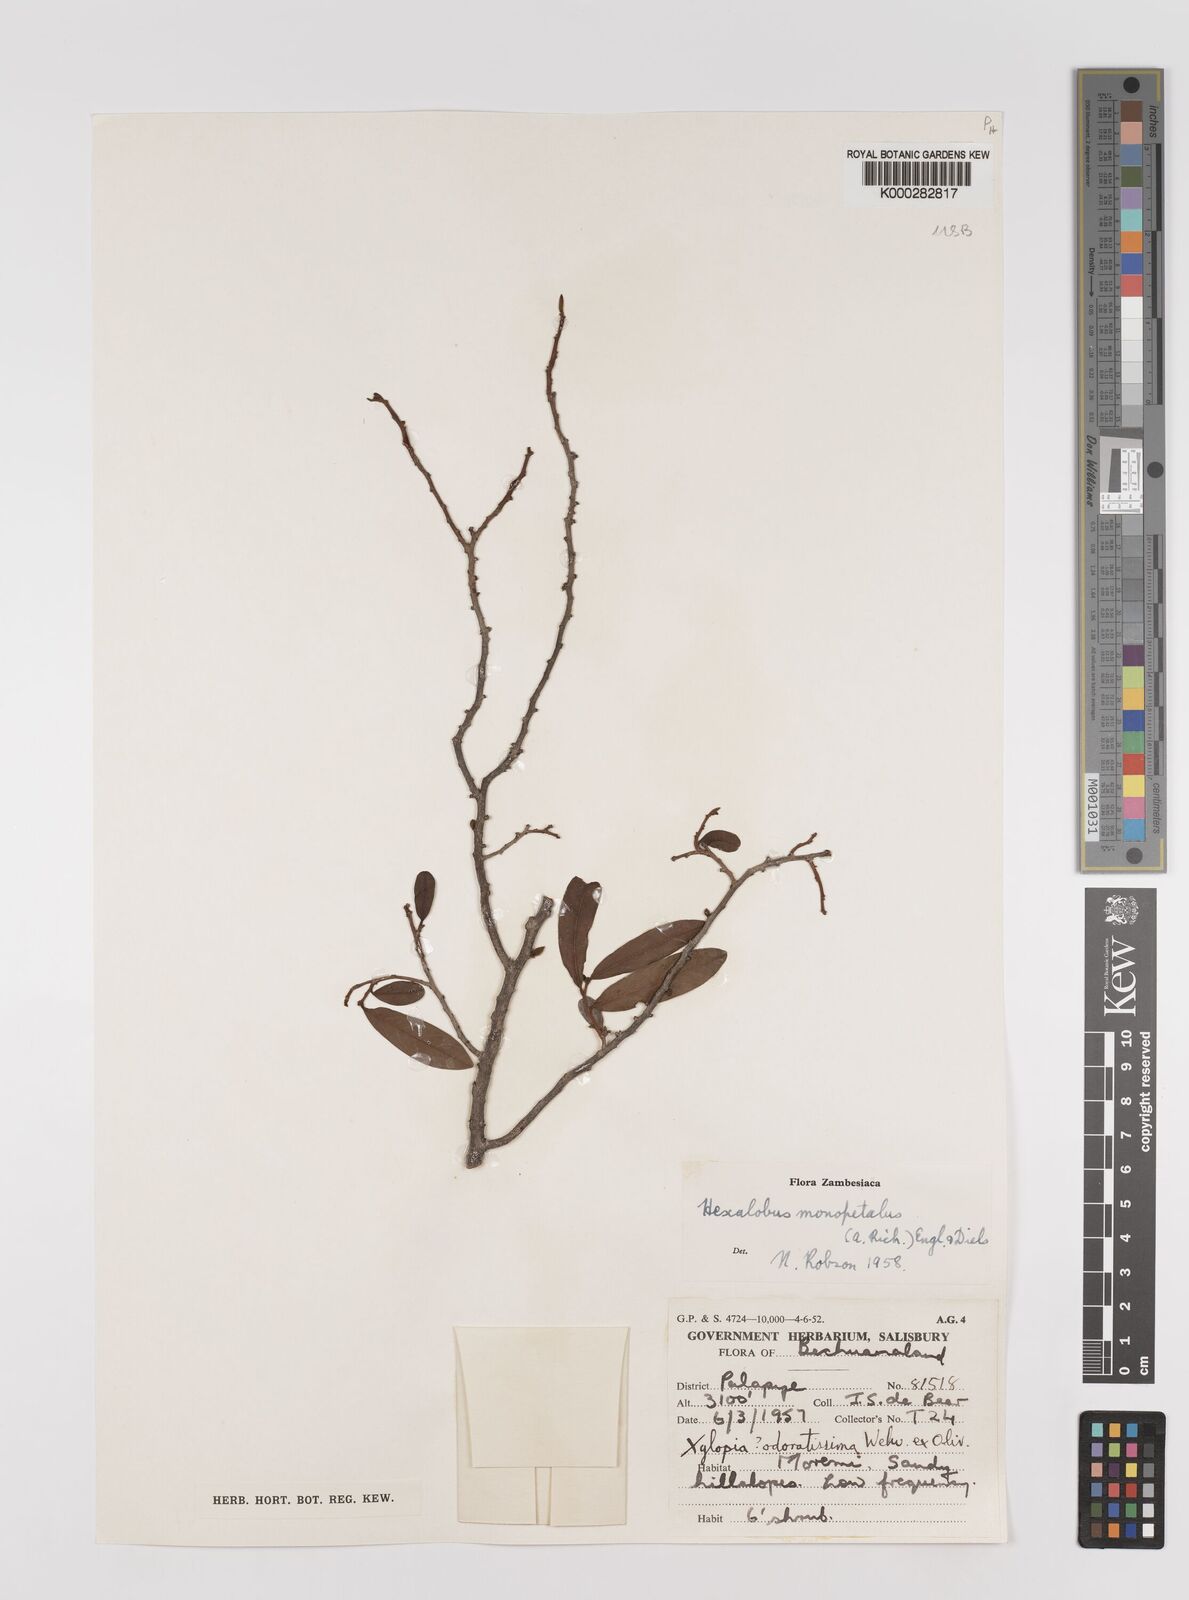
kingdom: Plantae
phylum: Tracheophyta
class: Magnoliopsida
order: Magnoliales
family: Annonaceae
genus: Hexalobus
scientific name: Hexalobus monopetalus
